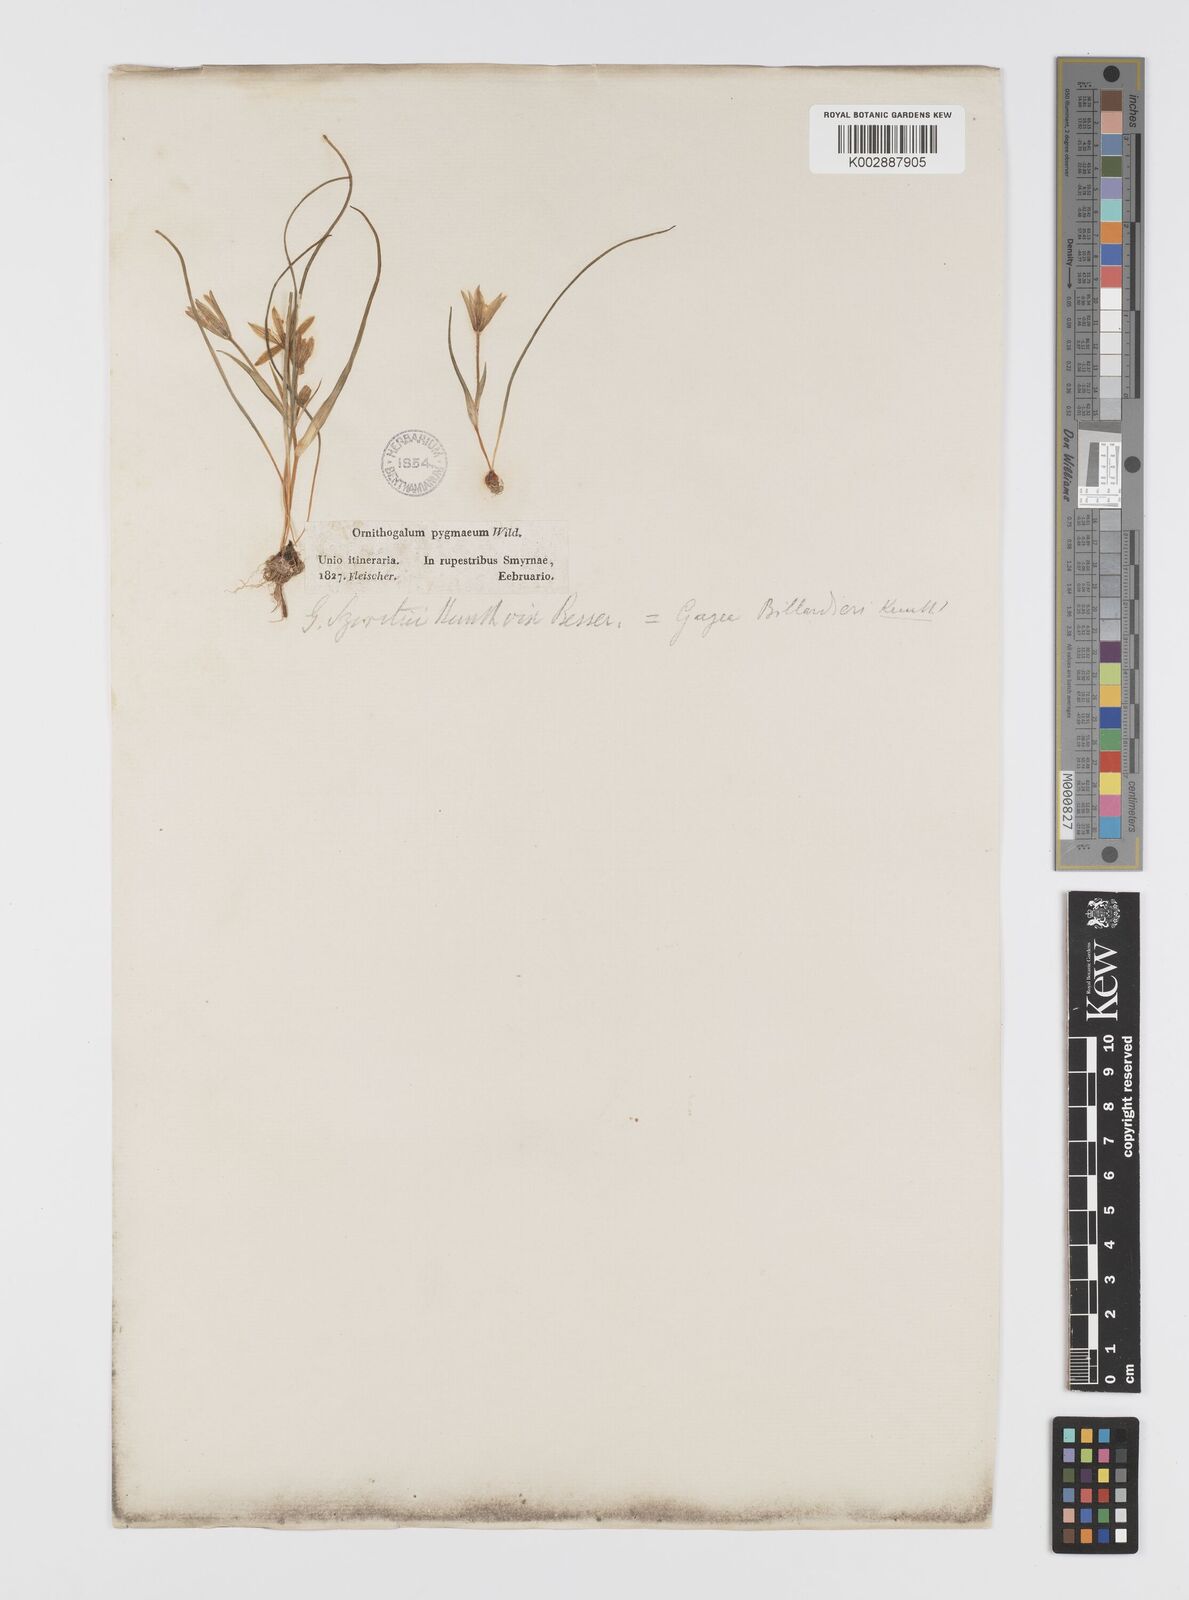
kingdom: Plantae
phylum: Tracheophyta
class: Liliopsida
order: Liliales
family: Liliaceae
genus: Gagea
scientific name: Gagea peduncularis
